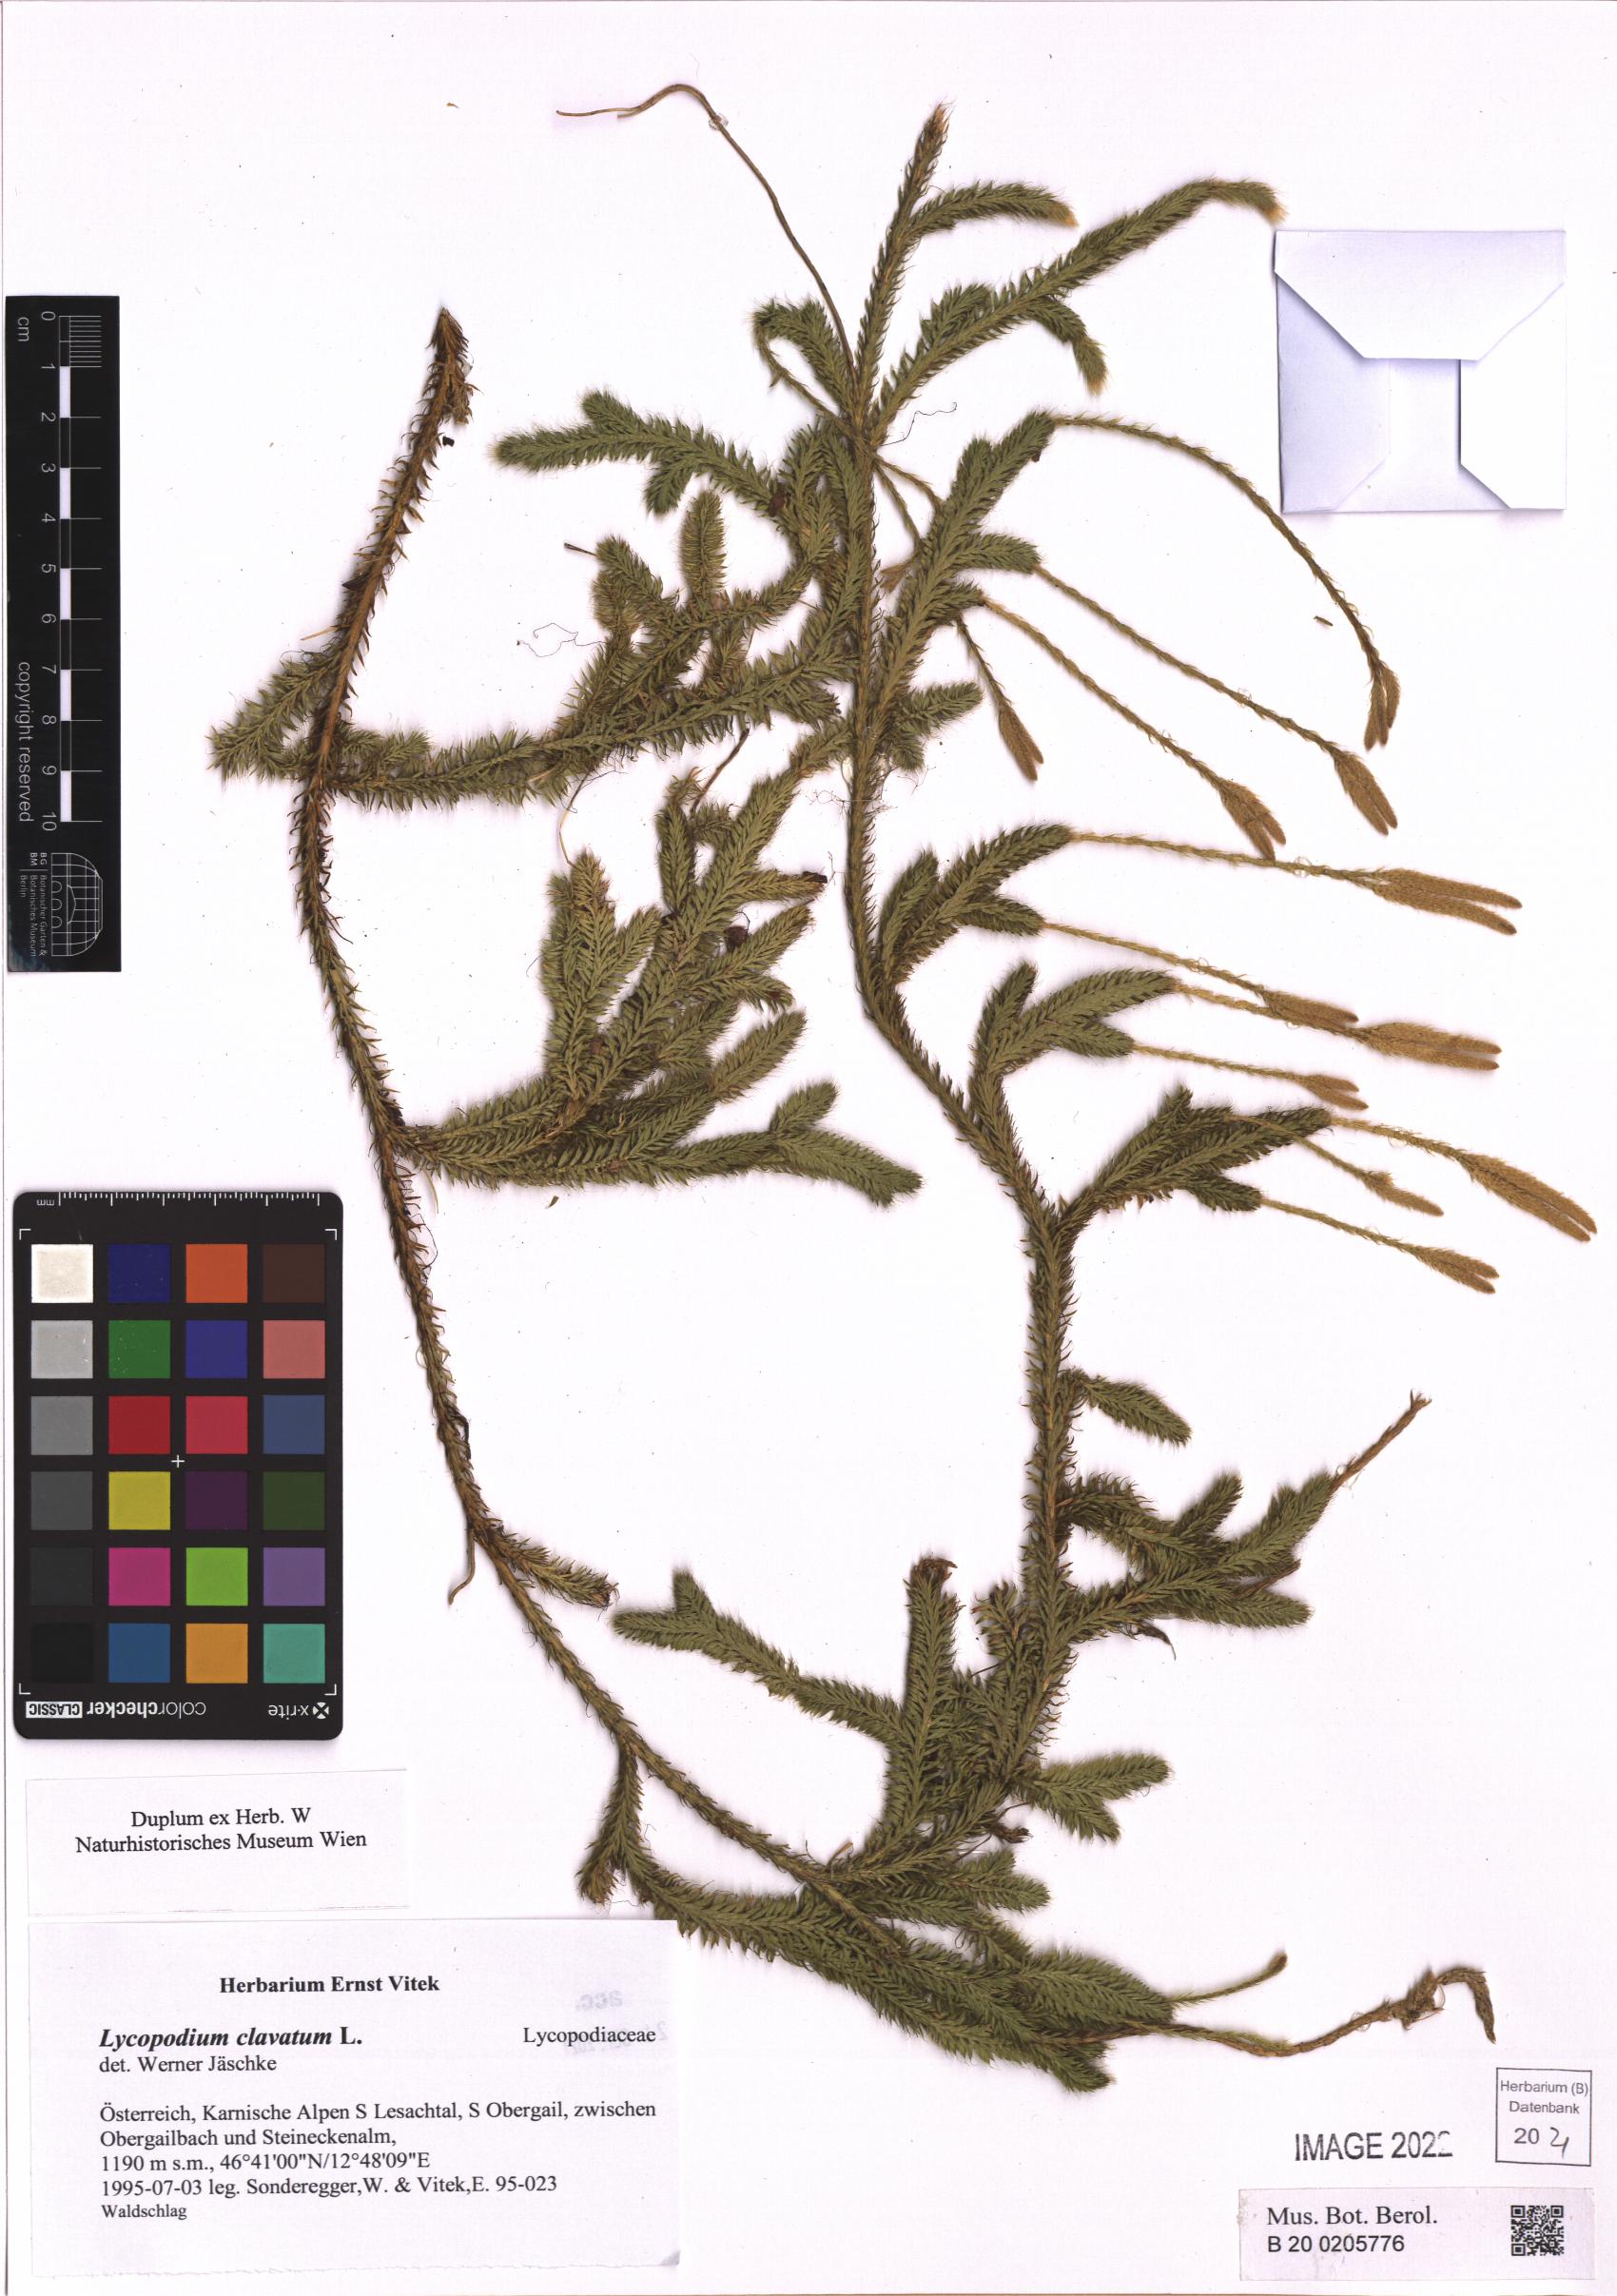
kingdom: Plantae
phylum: Tracheophyta
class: Lycopodiopsida
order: Lycopodiales
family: Lycopodiaceae
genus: Lycopodium
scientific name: Lycopodium clavatum
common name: Stag's-horn clubmoss
